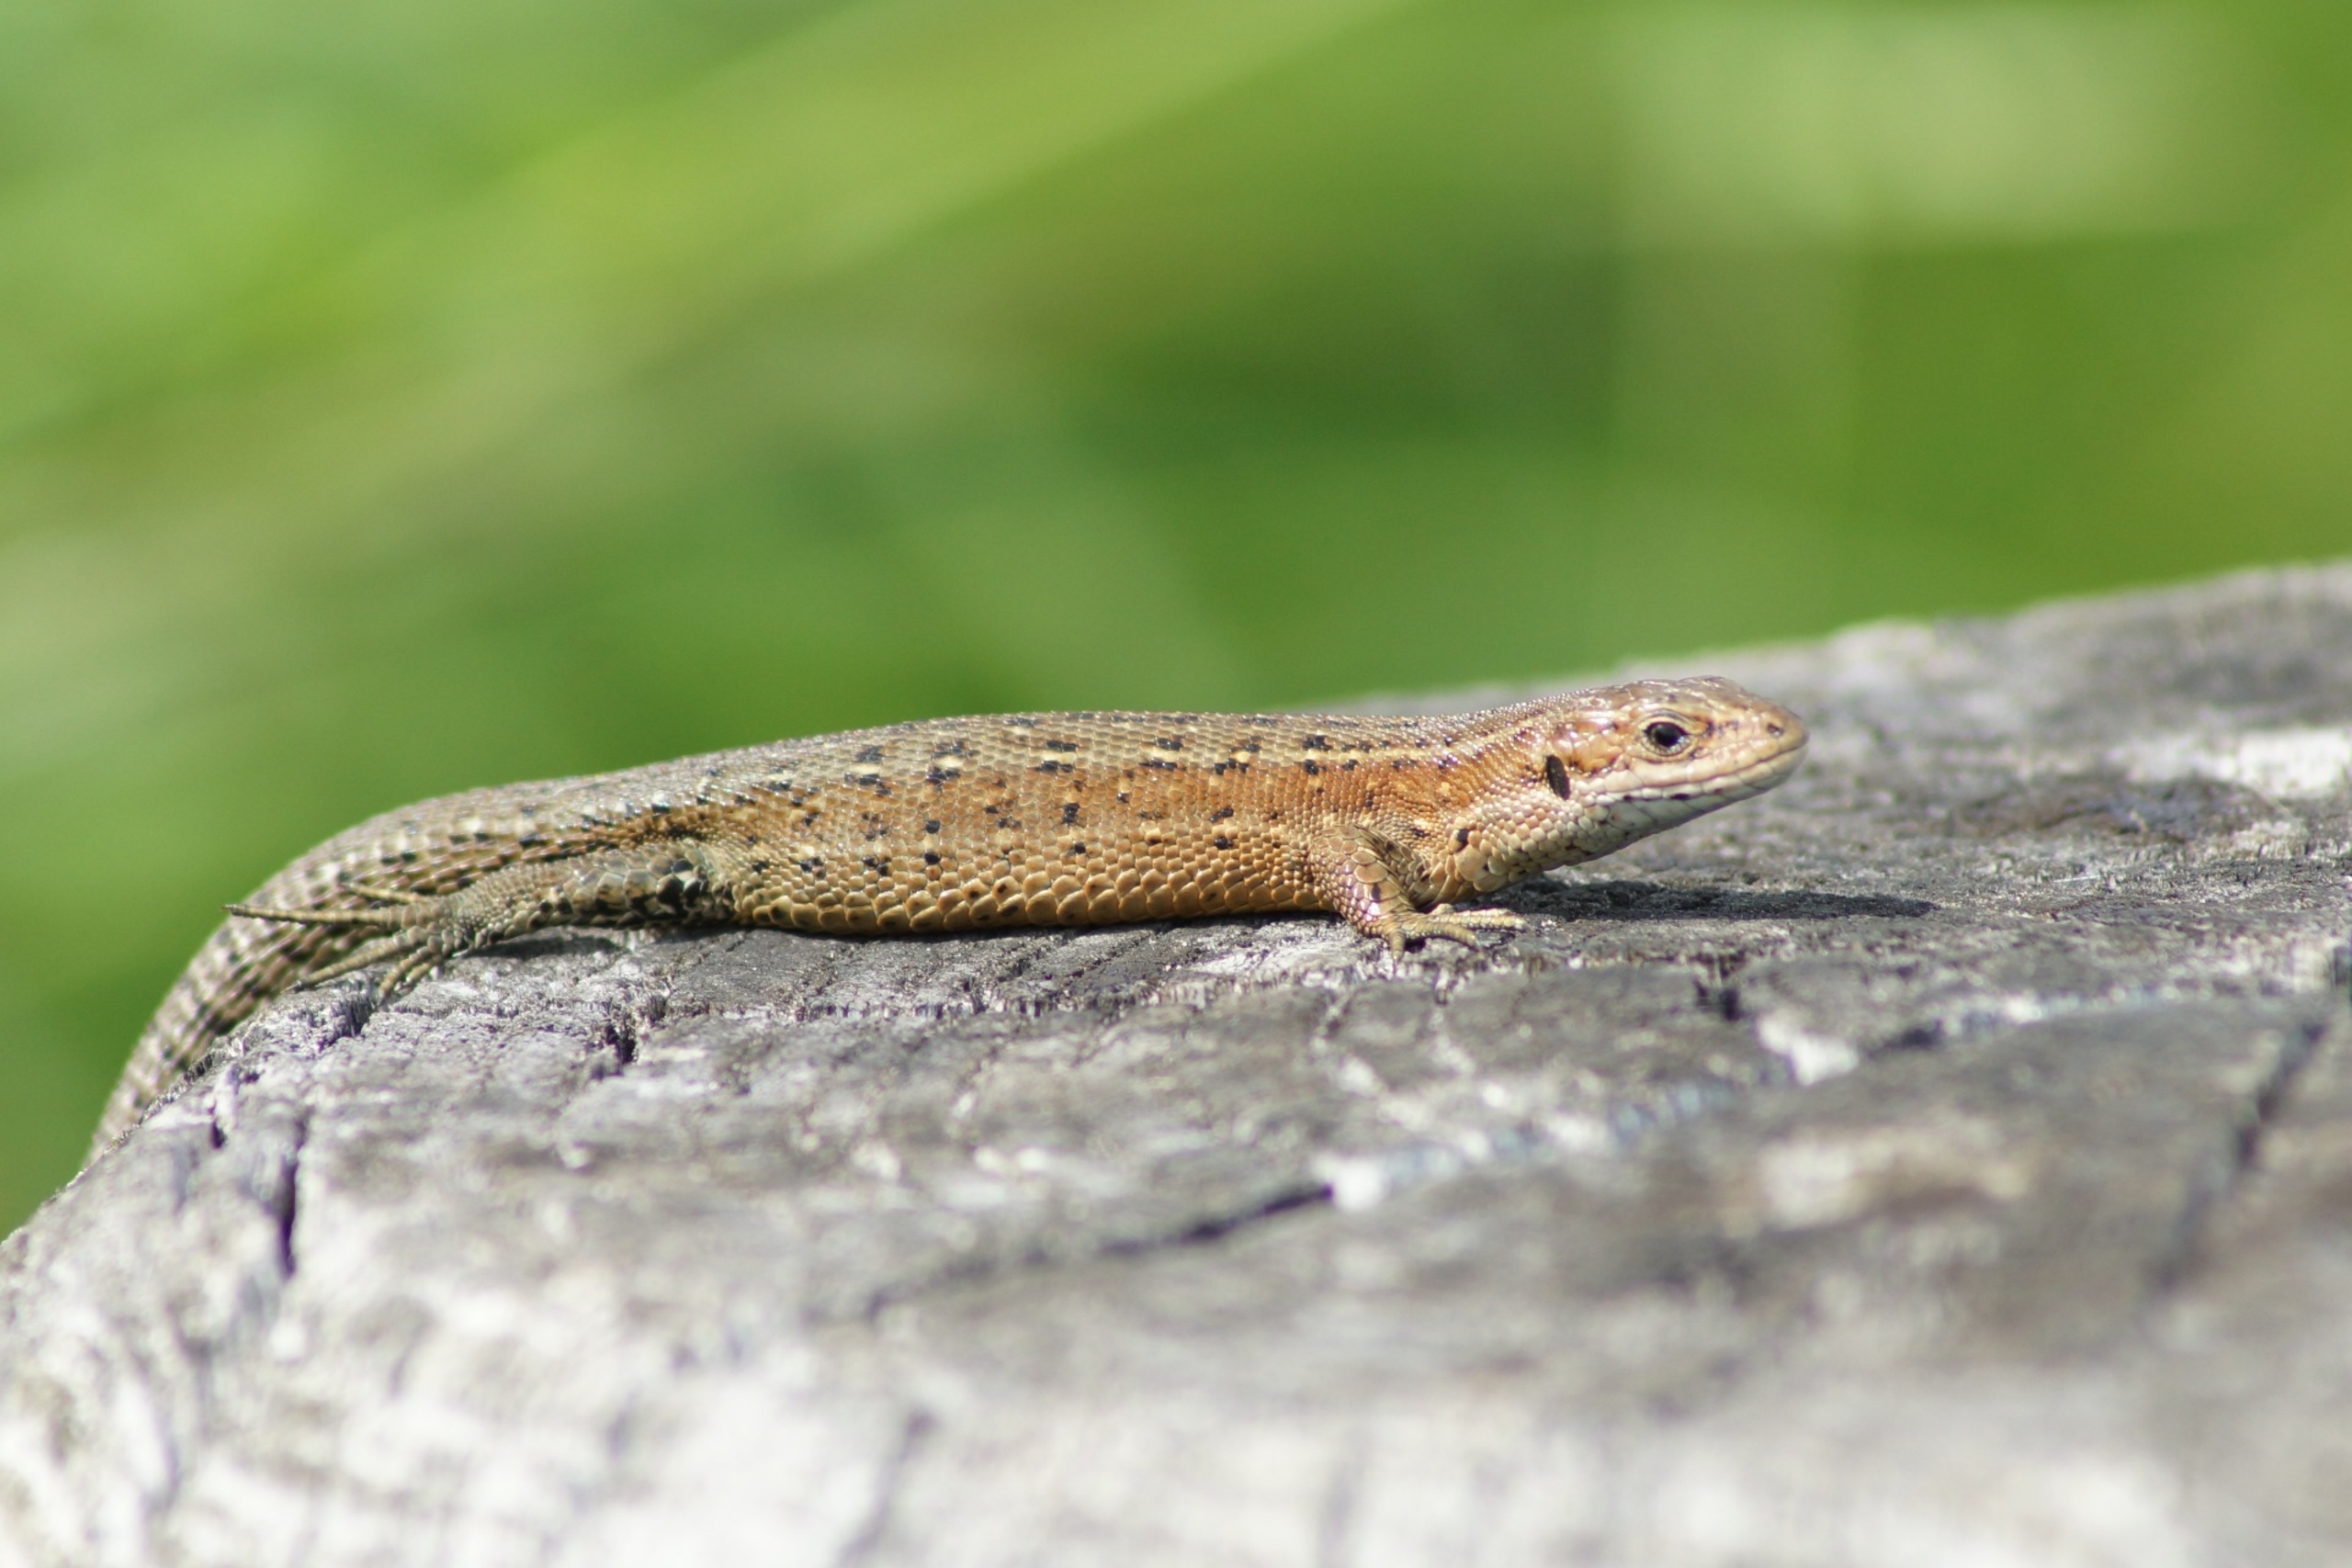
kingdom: Animalia
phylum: Chordata
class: Squamata
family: Lacertidae
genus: Zootoca
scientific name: Zootoca vivipara
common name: Skovfirben
